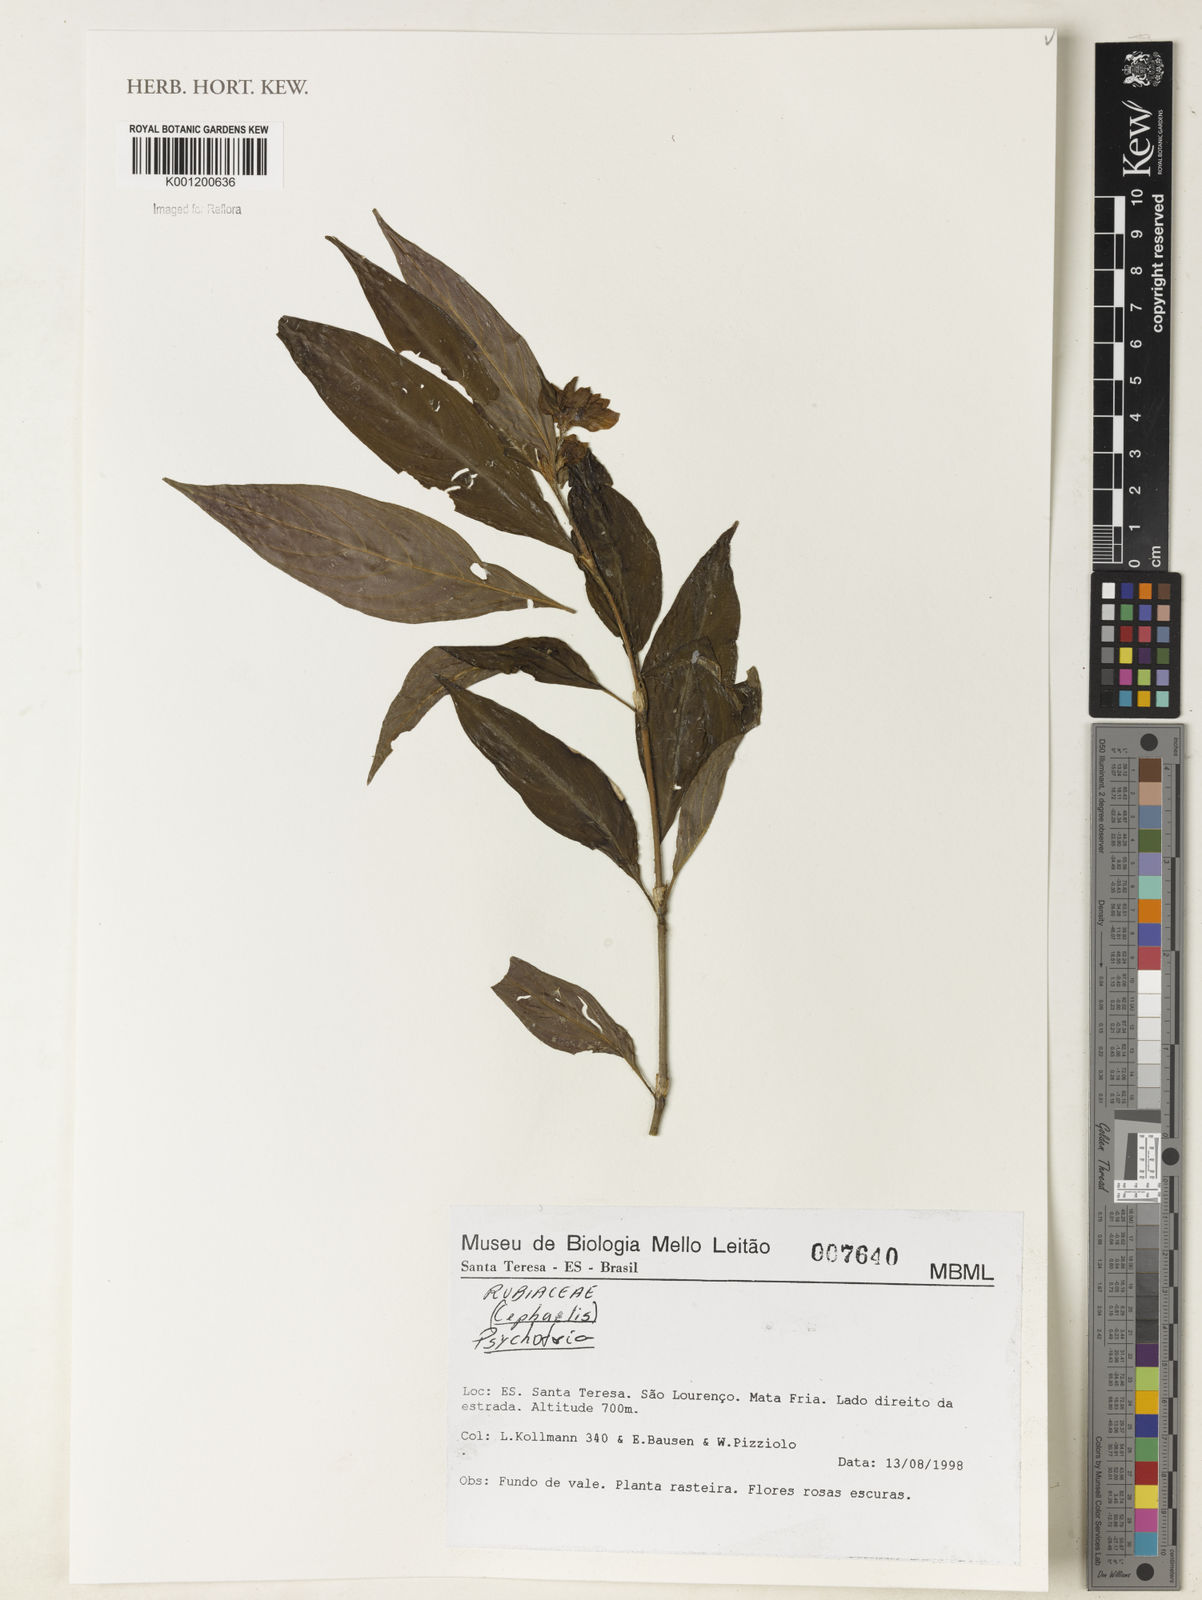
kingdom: Plantae
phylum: Tracheophyta
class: Magnoliopsida
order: Gentianales
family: Rubiaceae
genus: Psychotria
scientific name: Psychotria
